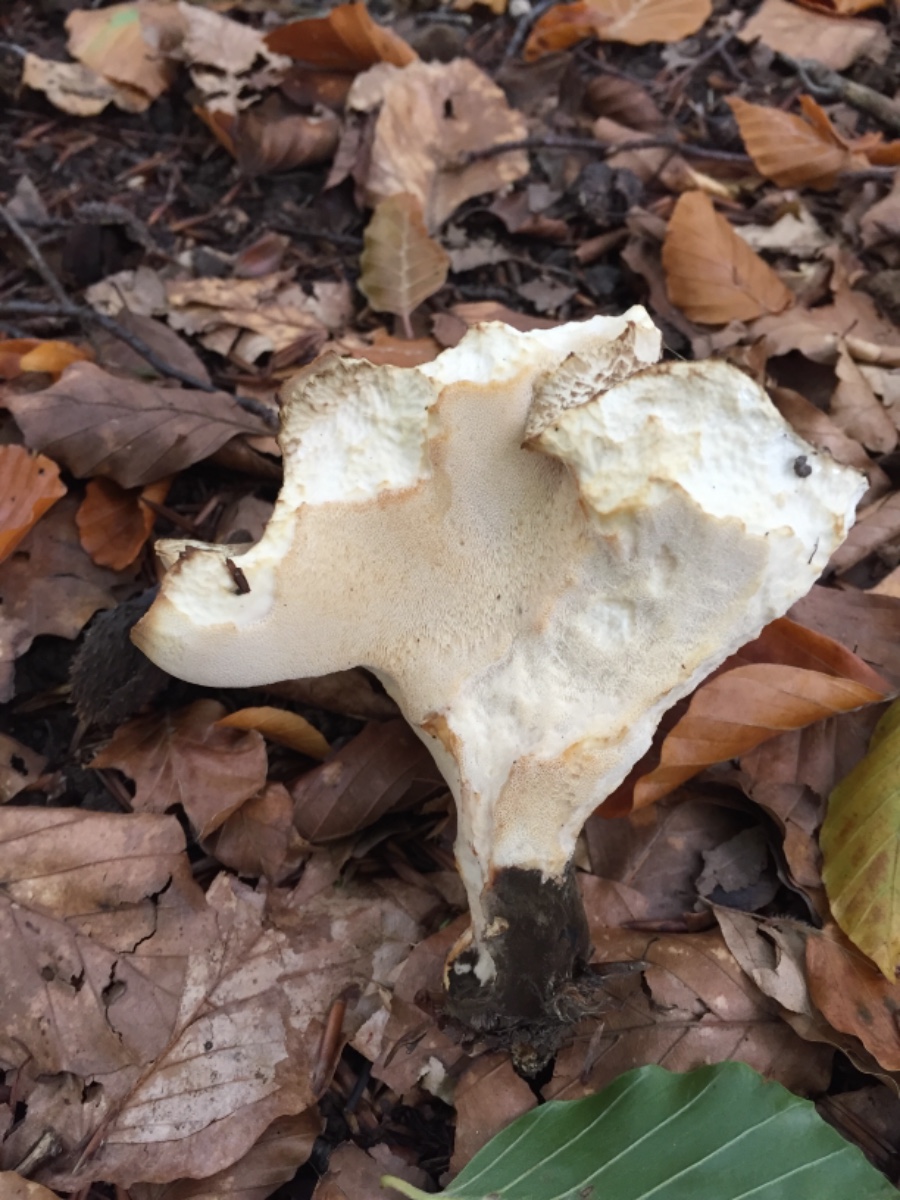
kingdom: Fungi
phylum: Basidiomycota
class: Agaricomycetes
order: Polyporales
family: Polyporaceae
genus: Picipes
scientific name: Picipes melanopus
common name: sortfodet stilkporesvamp
